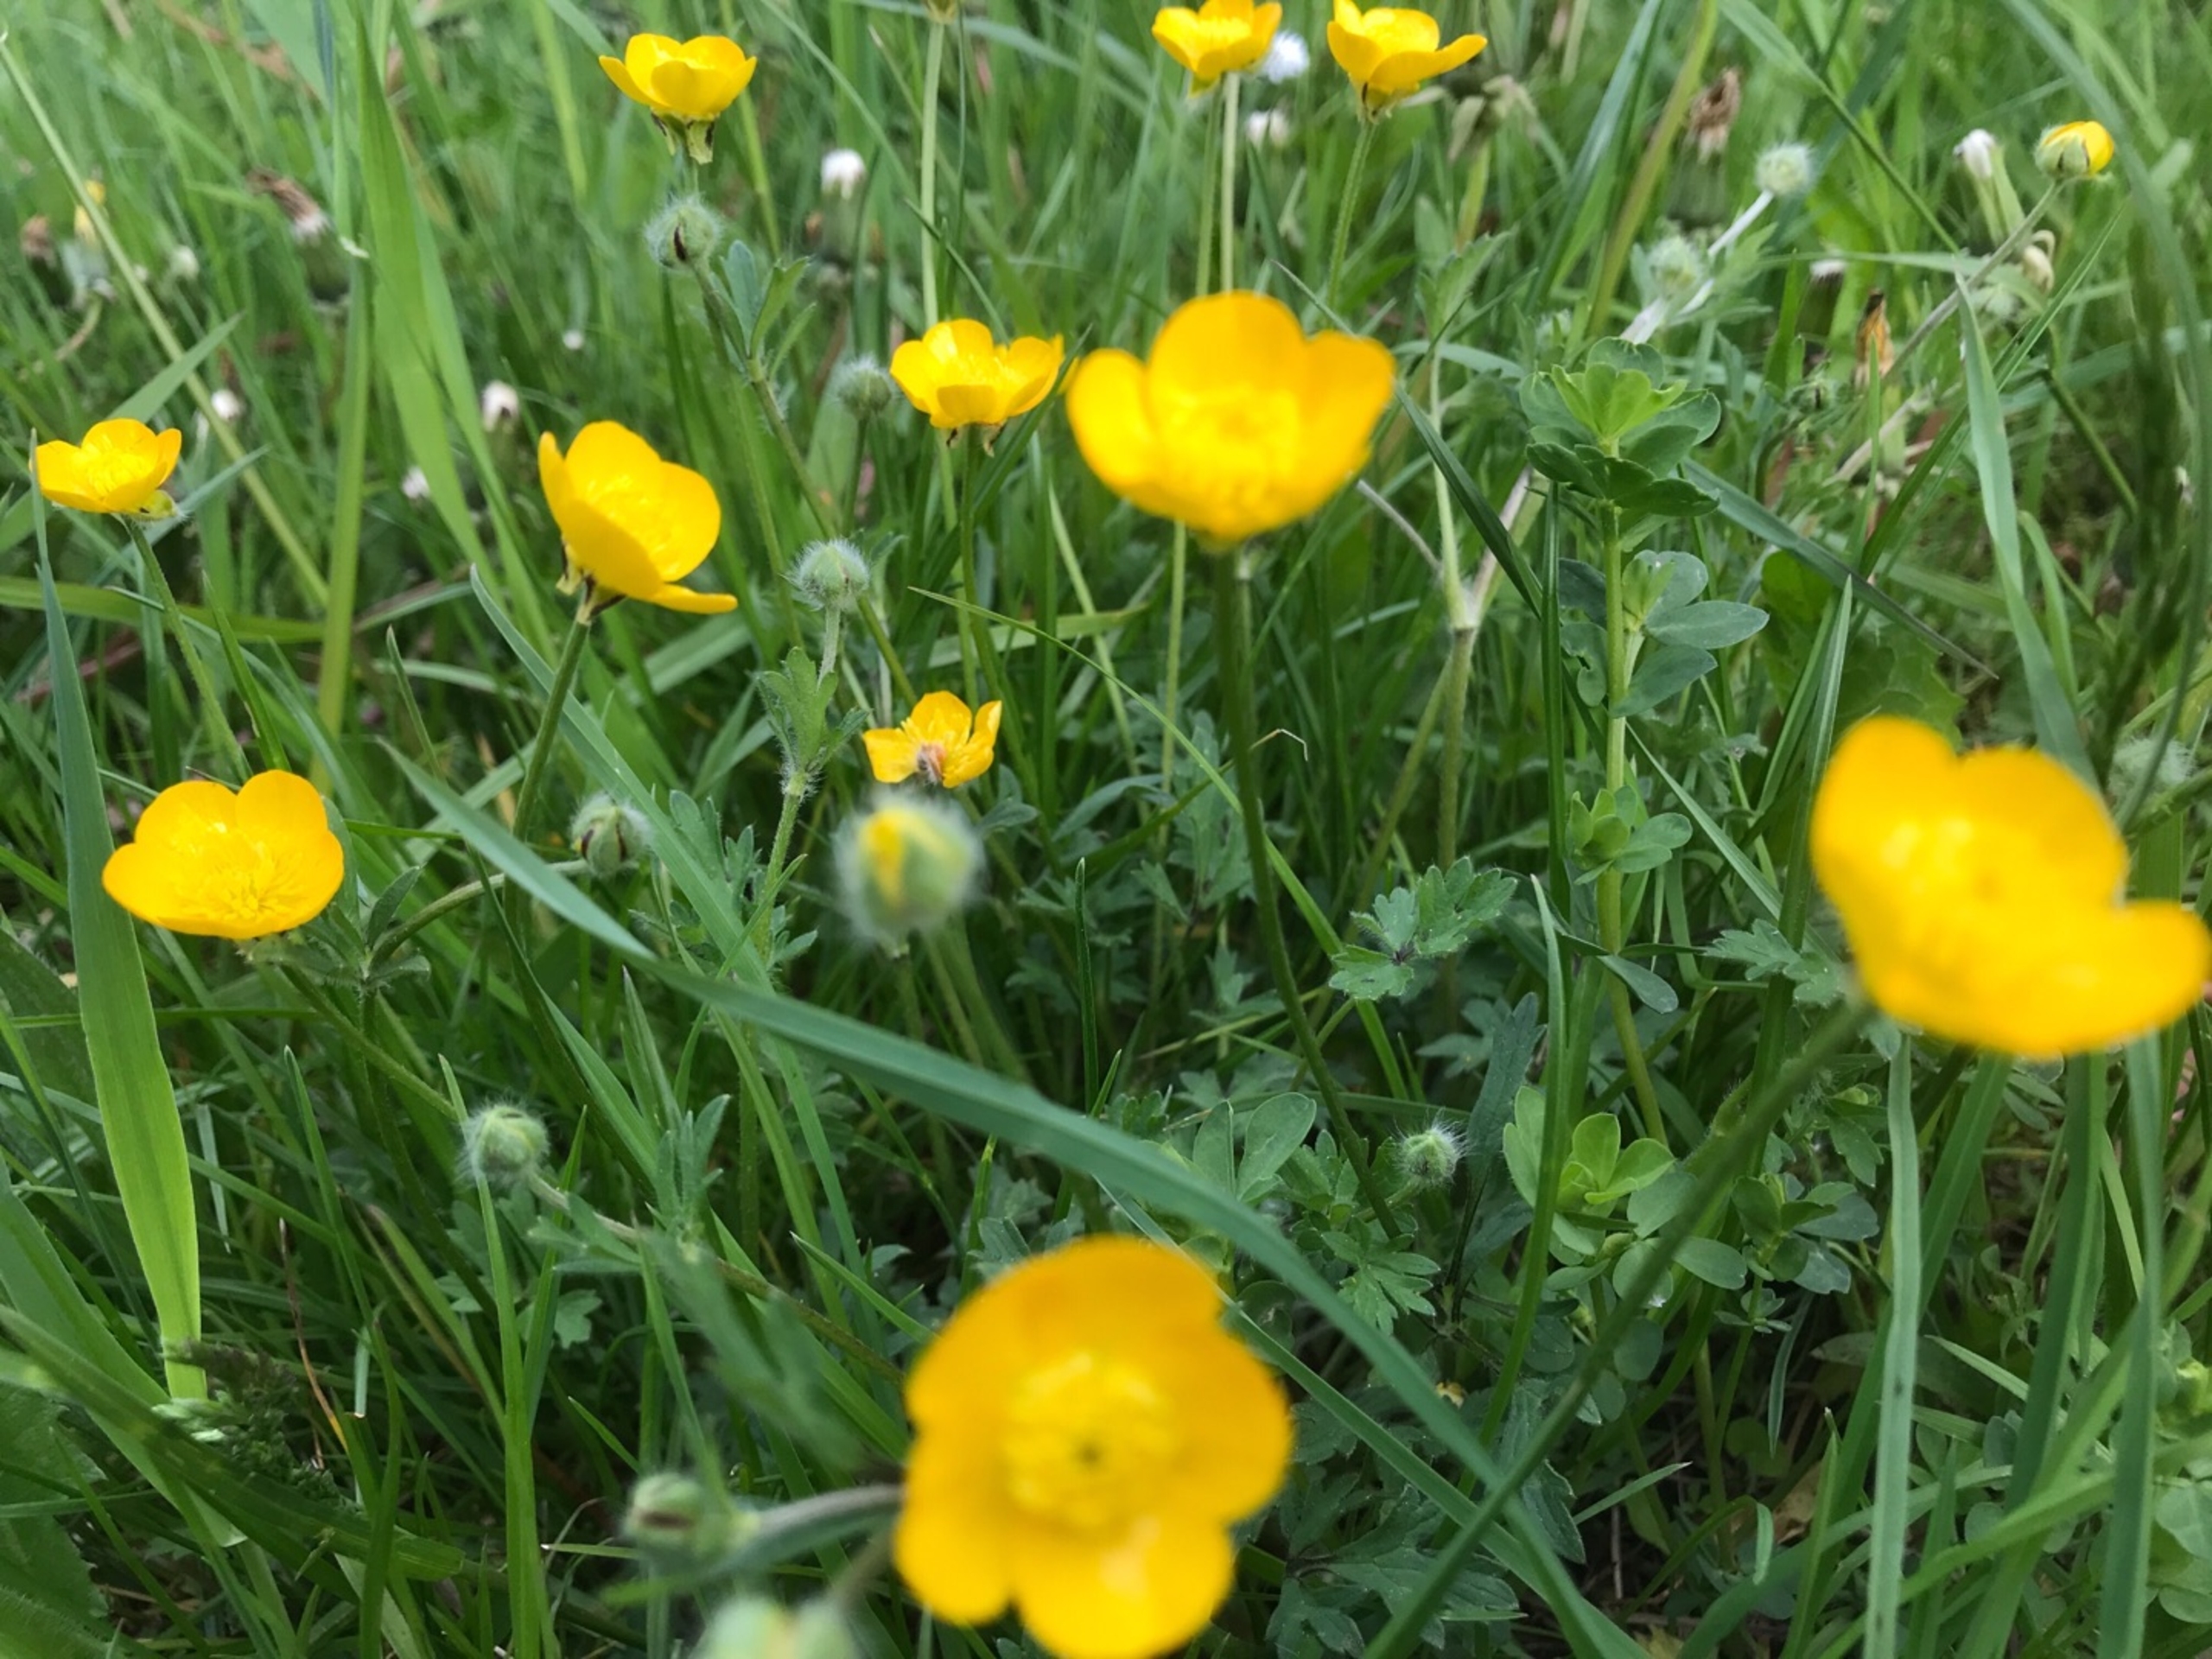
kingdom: Plantae
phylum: Tracheophyta
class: Magnoliopsida
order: Ranunculales
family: Ranunculaceae
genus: Ranunculus
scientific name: Ranunculus bulbosus
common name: Knold-ranunkel
